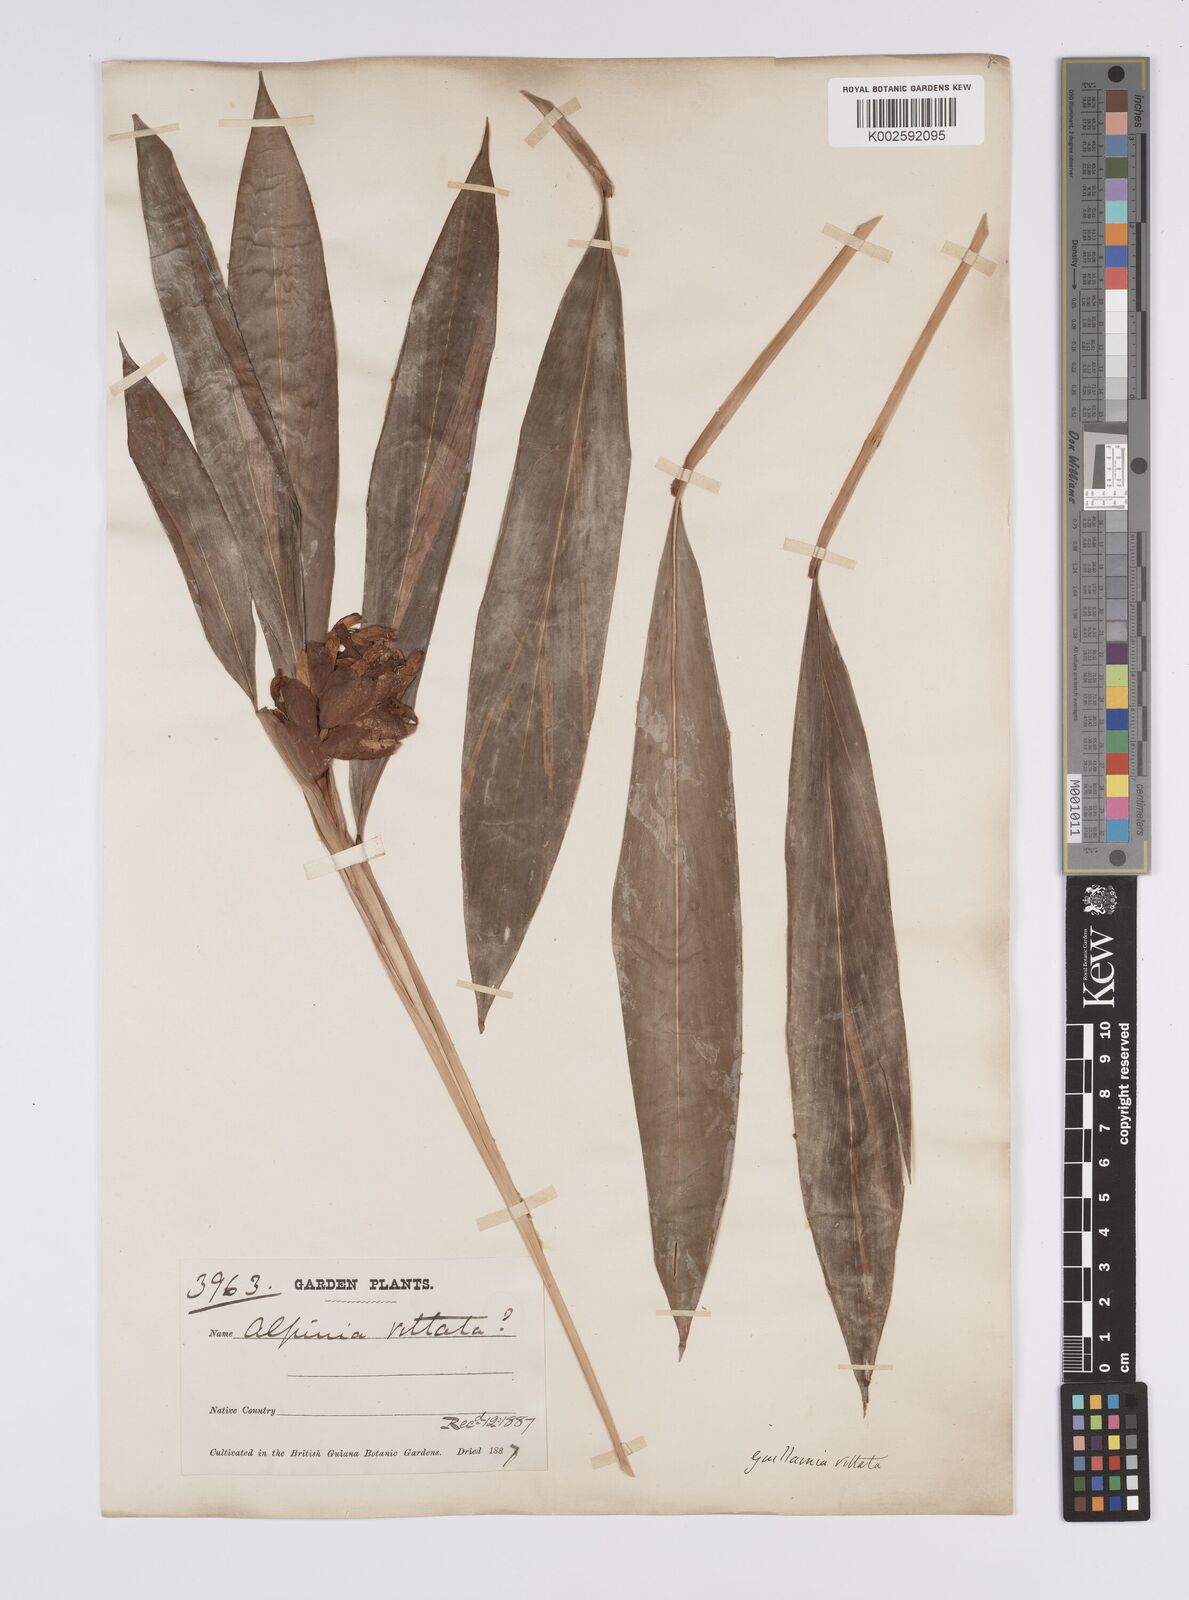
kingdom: Plantae
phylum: Tracheophyta
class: Liliopsida
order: Zingiberales
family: Zingiberaceae
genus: Alpinia
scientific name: Alpinia
